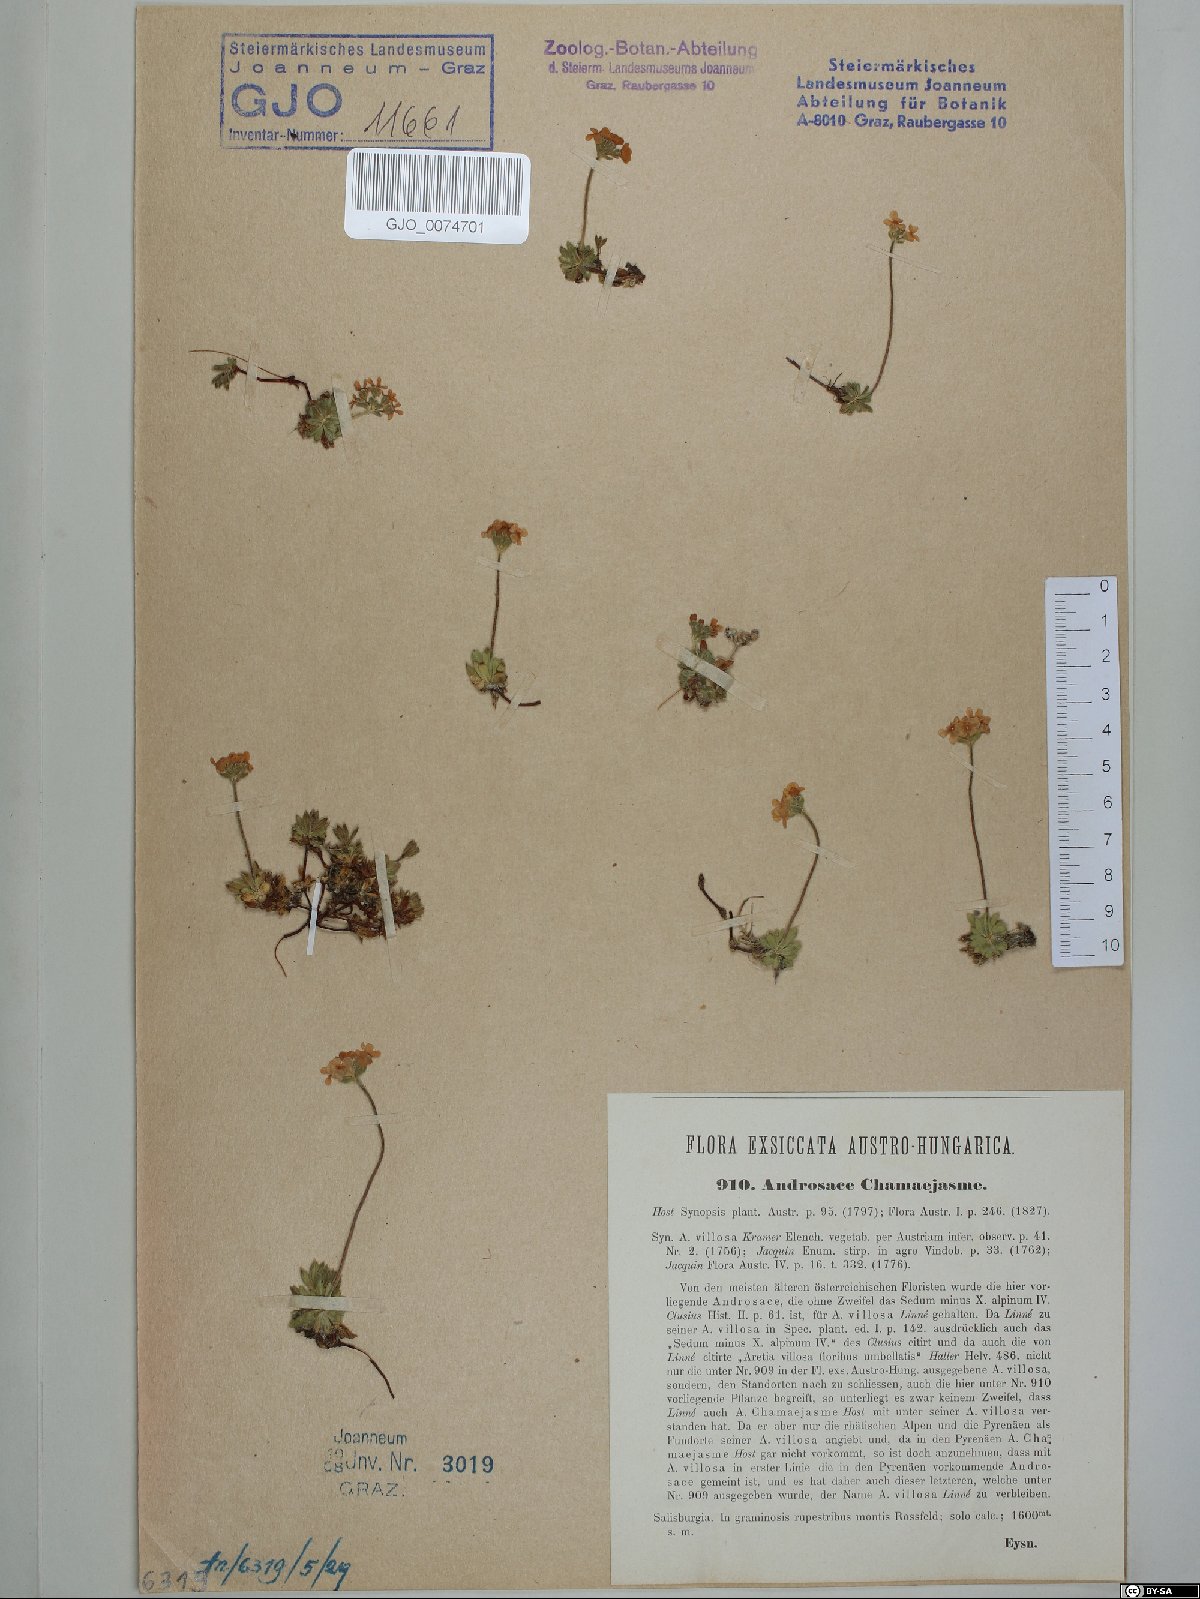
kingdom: Plantae
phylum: Tracheophyta
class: Magnoliopsida
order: Ericales
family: Primulaceae
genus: Androsace
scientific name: Androsace chamaejasme
